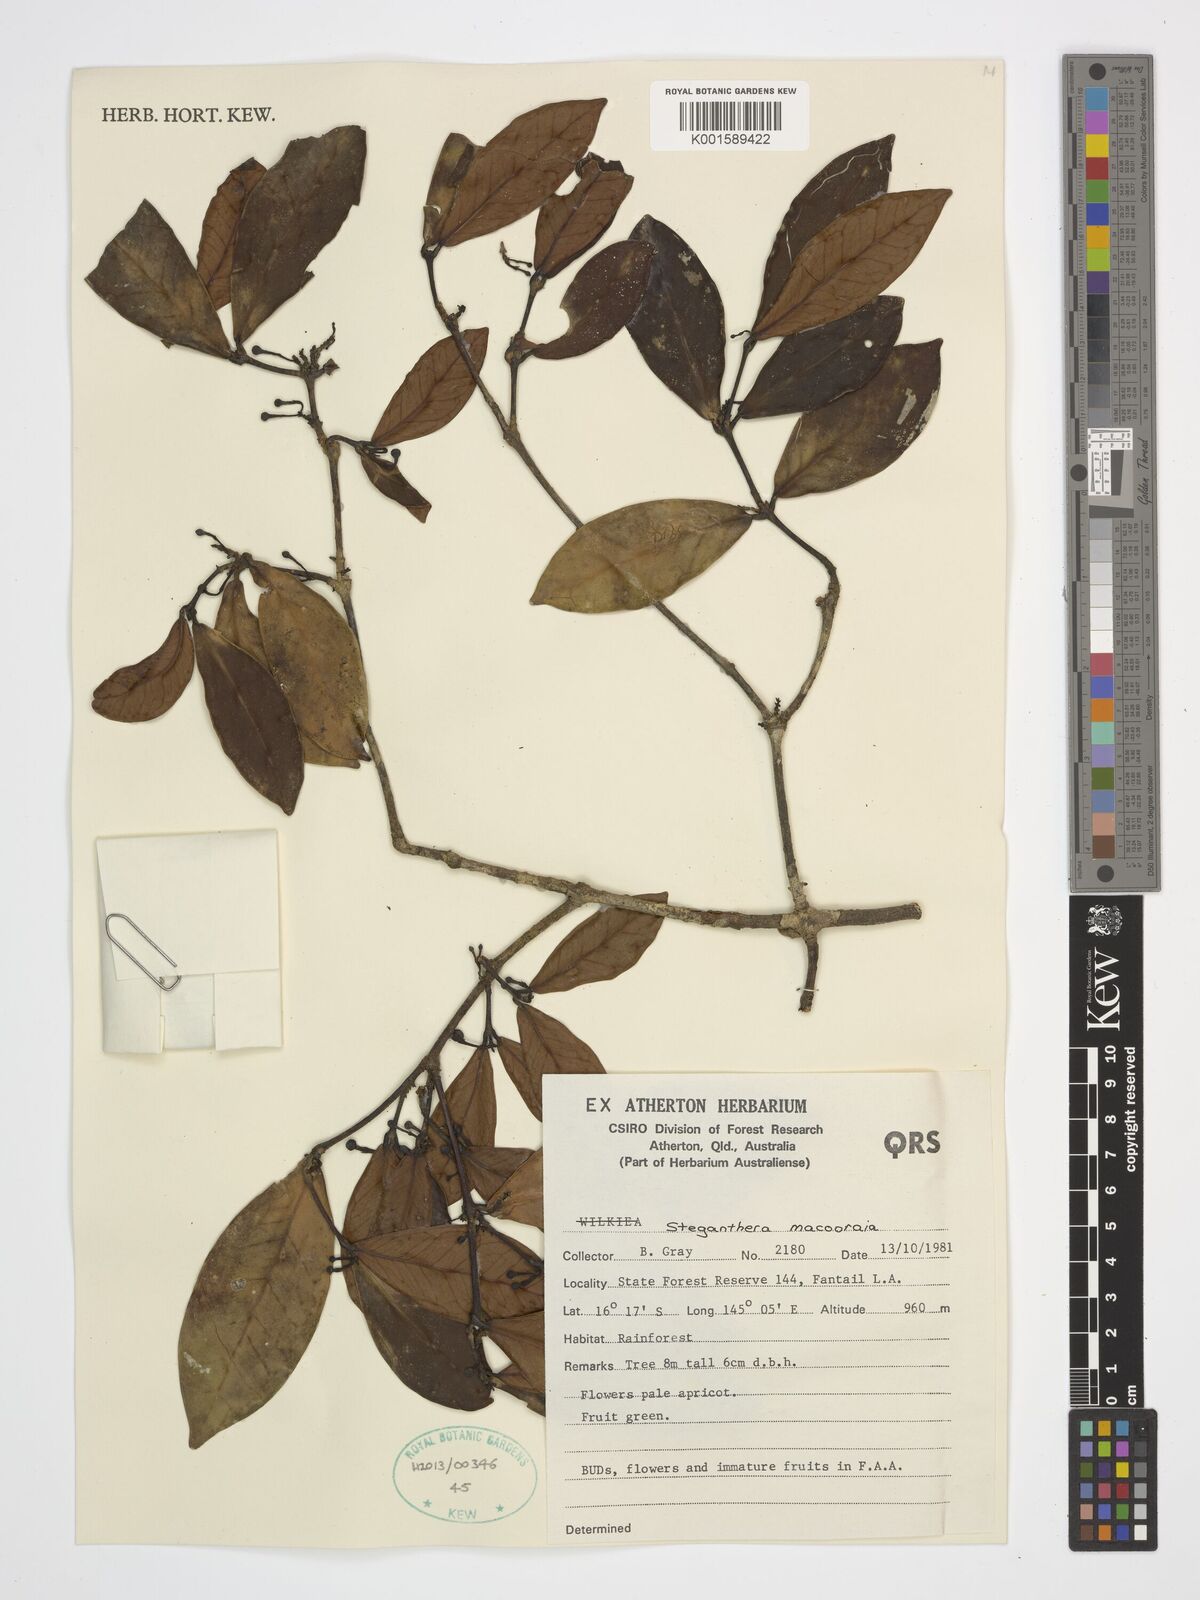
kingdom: Plantae
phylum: Tracheophyta
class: Magnoliopsida
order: Laurales
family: Monimiaceae
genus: Steganthera
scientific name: Steganthera macooraia
